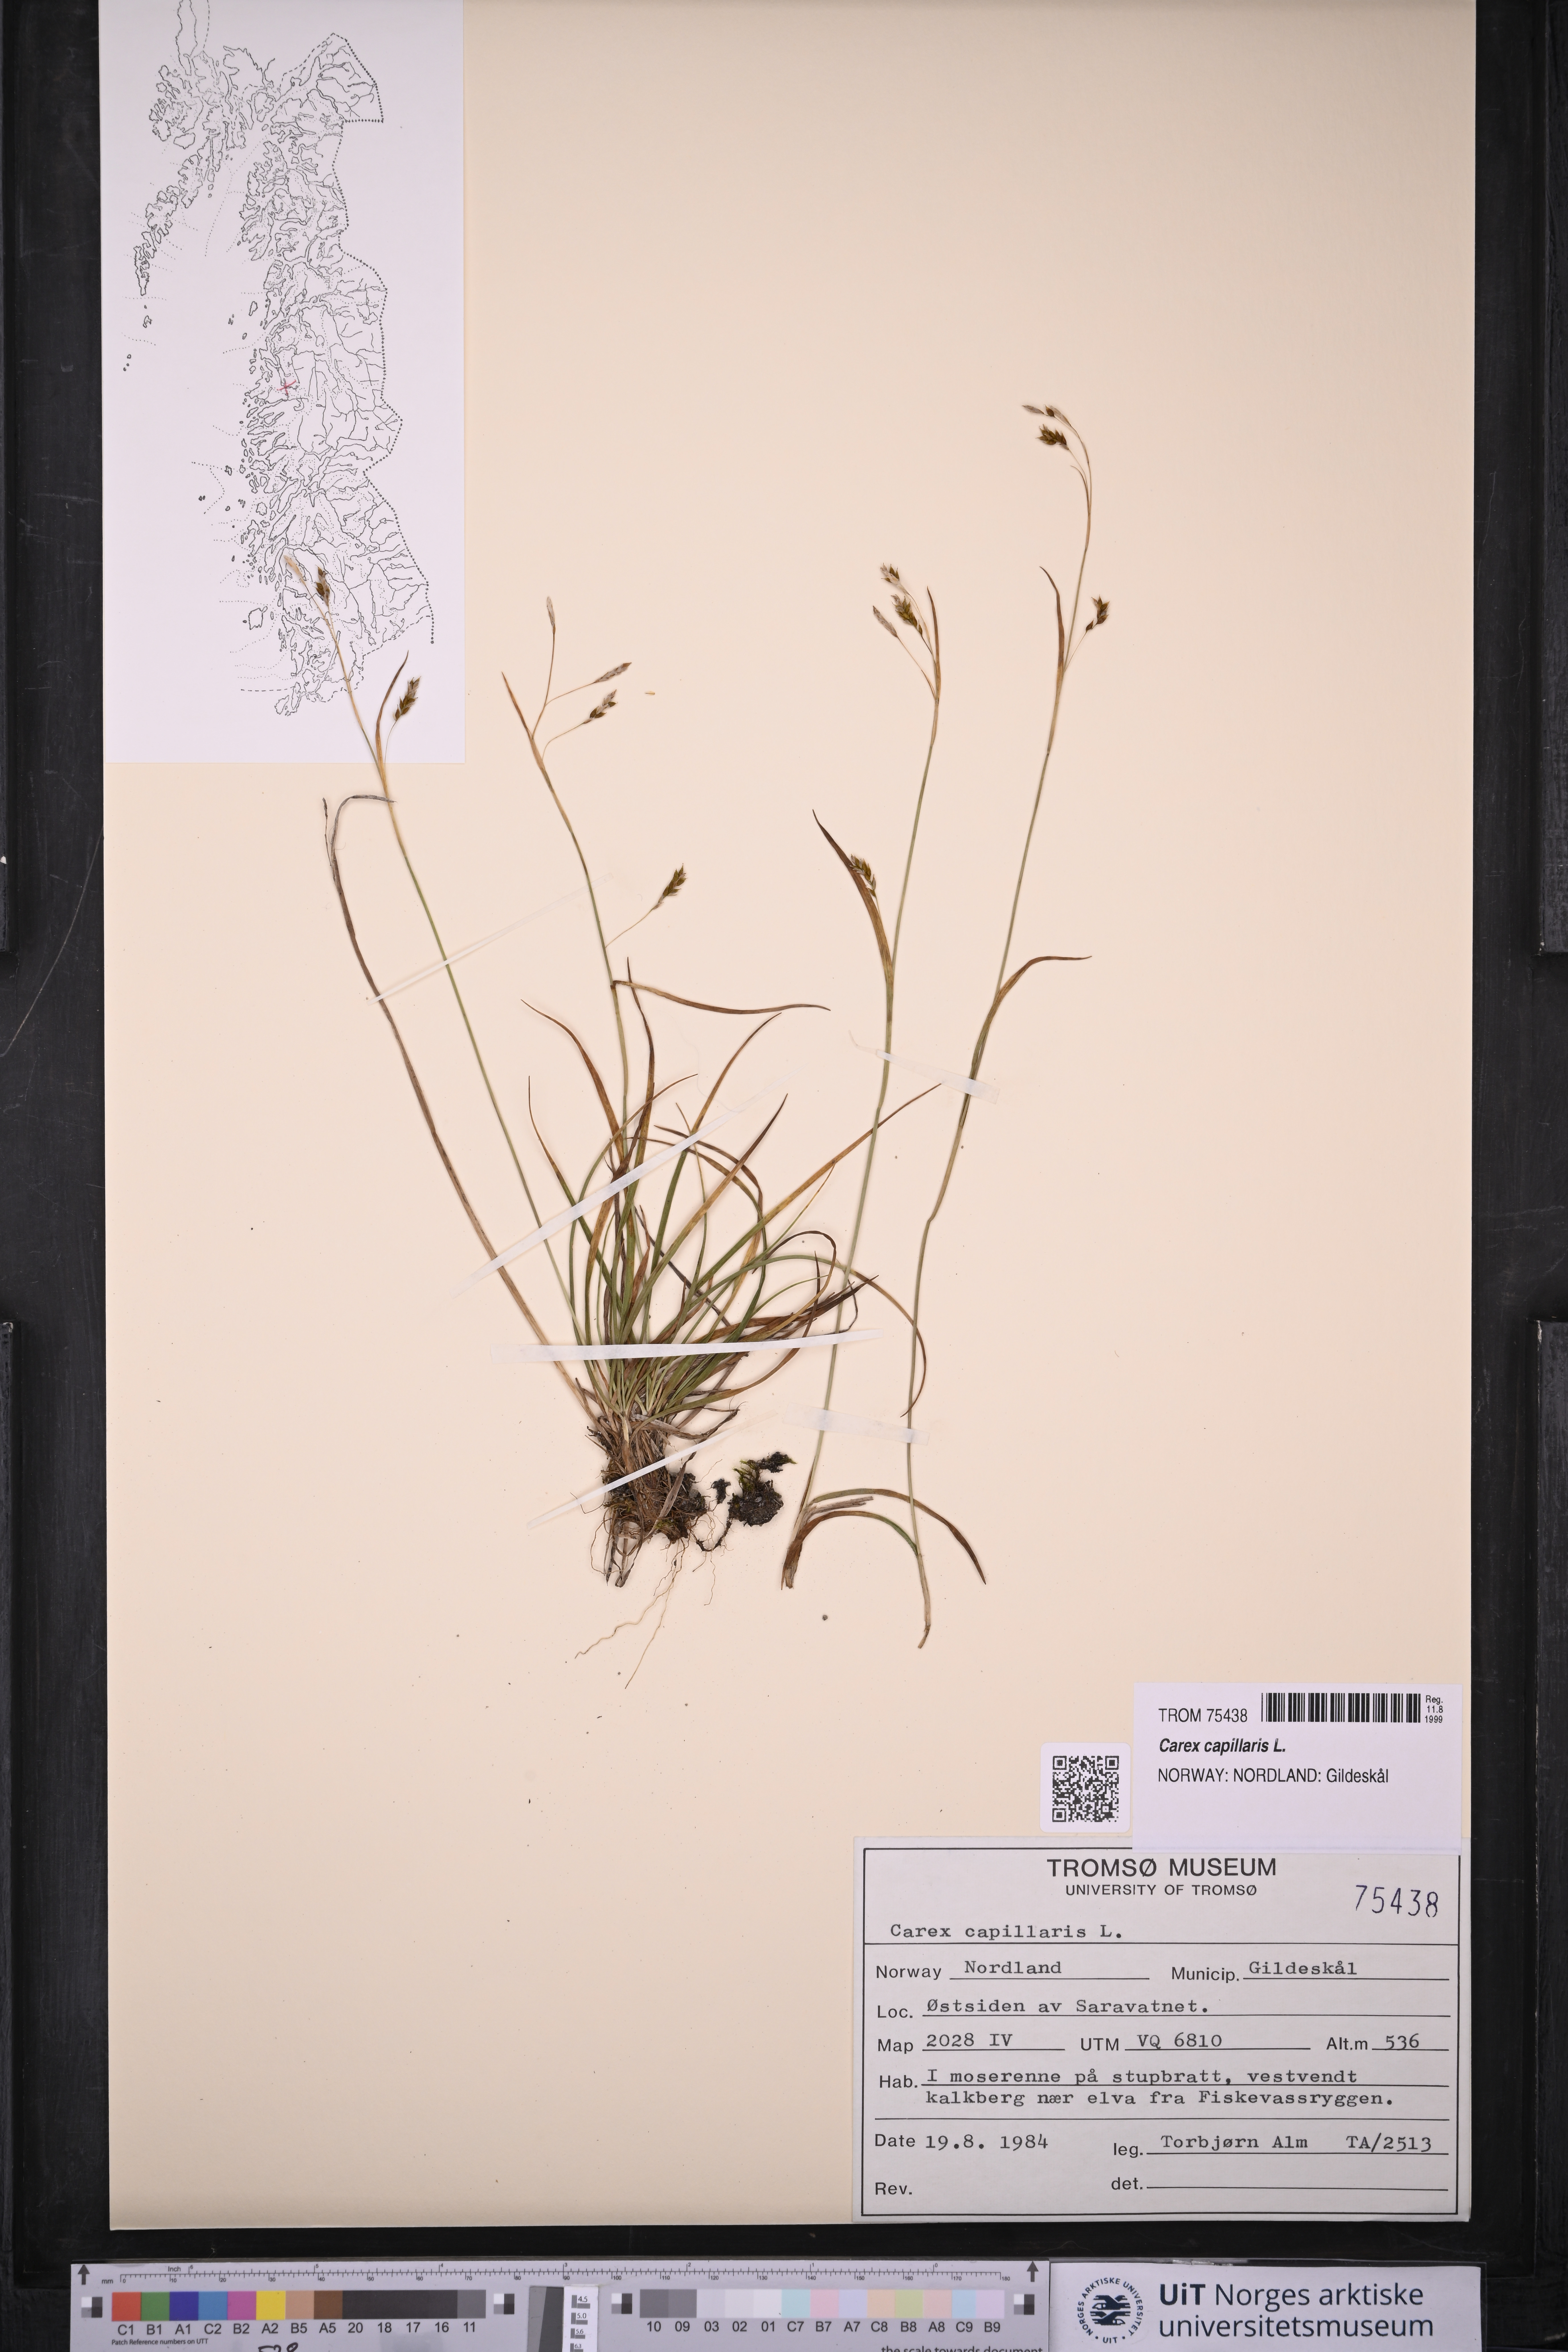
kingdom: Plantae
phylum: Tracheophyta
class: Liliopsida
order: Poales
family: Cyperaceae
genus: Carex
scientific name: Carex capillaris
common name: Hair sedge
